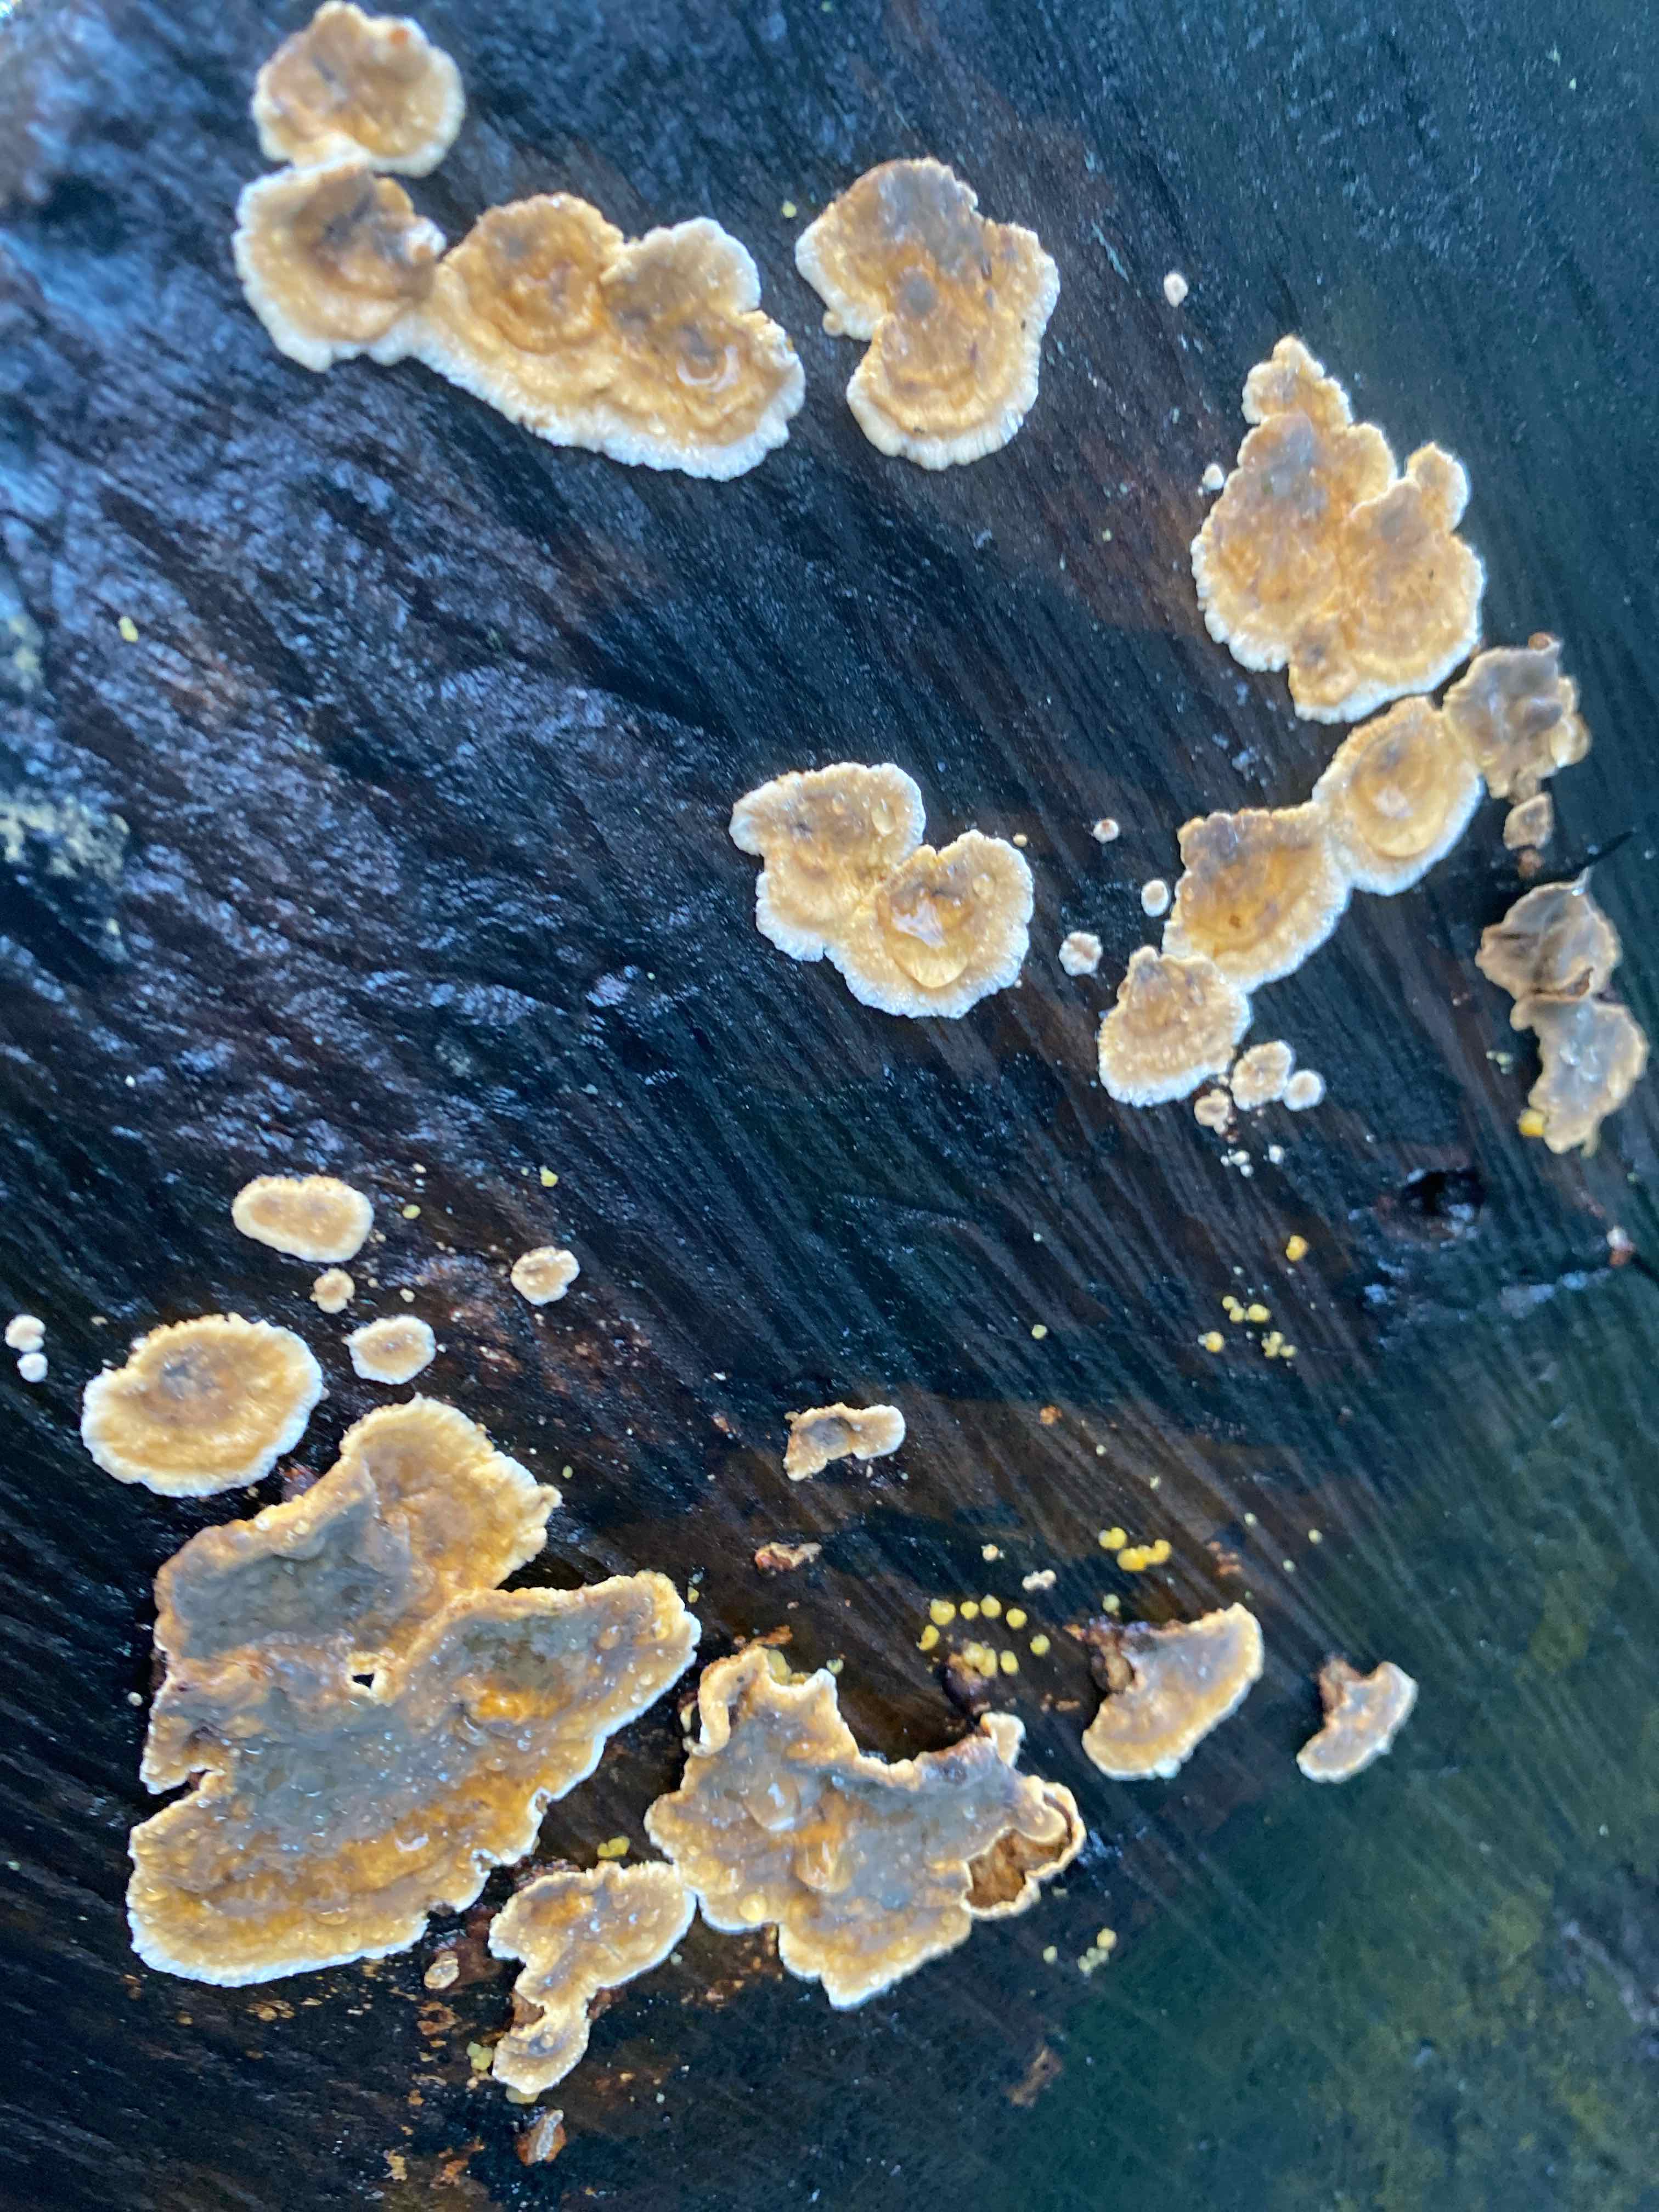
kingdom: Fungi
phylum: Basidiomycota
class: Agaricomycetes
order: Russulales
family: Stereaceae
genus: Stereum
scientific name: Stereum
